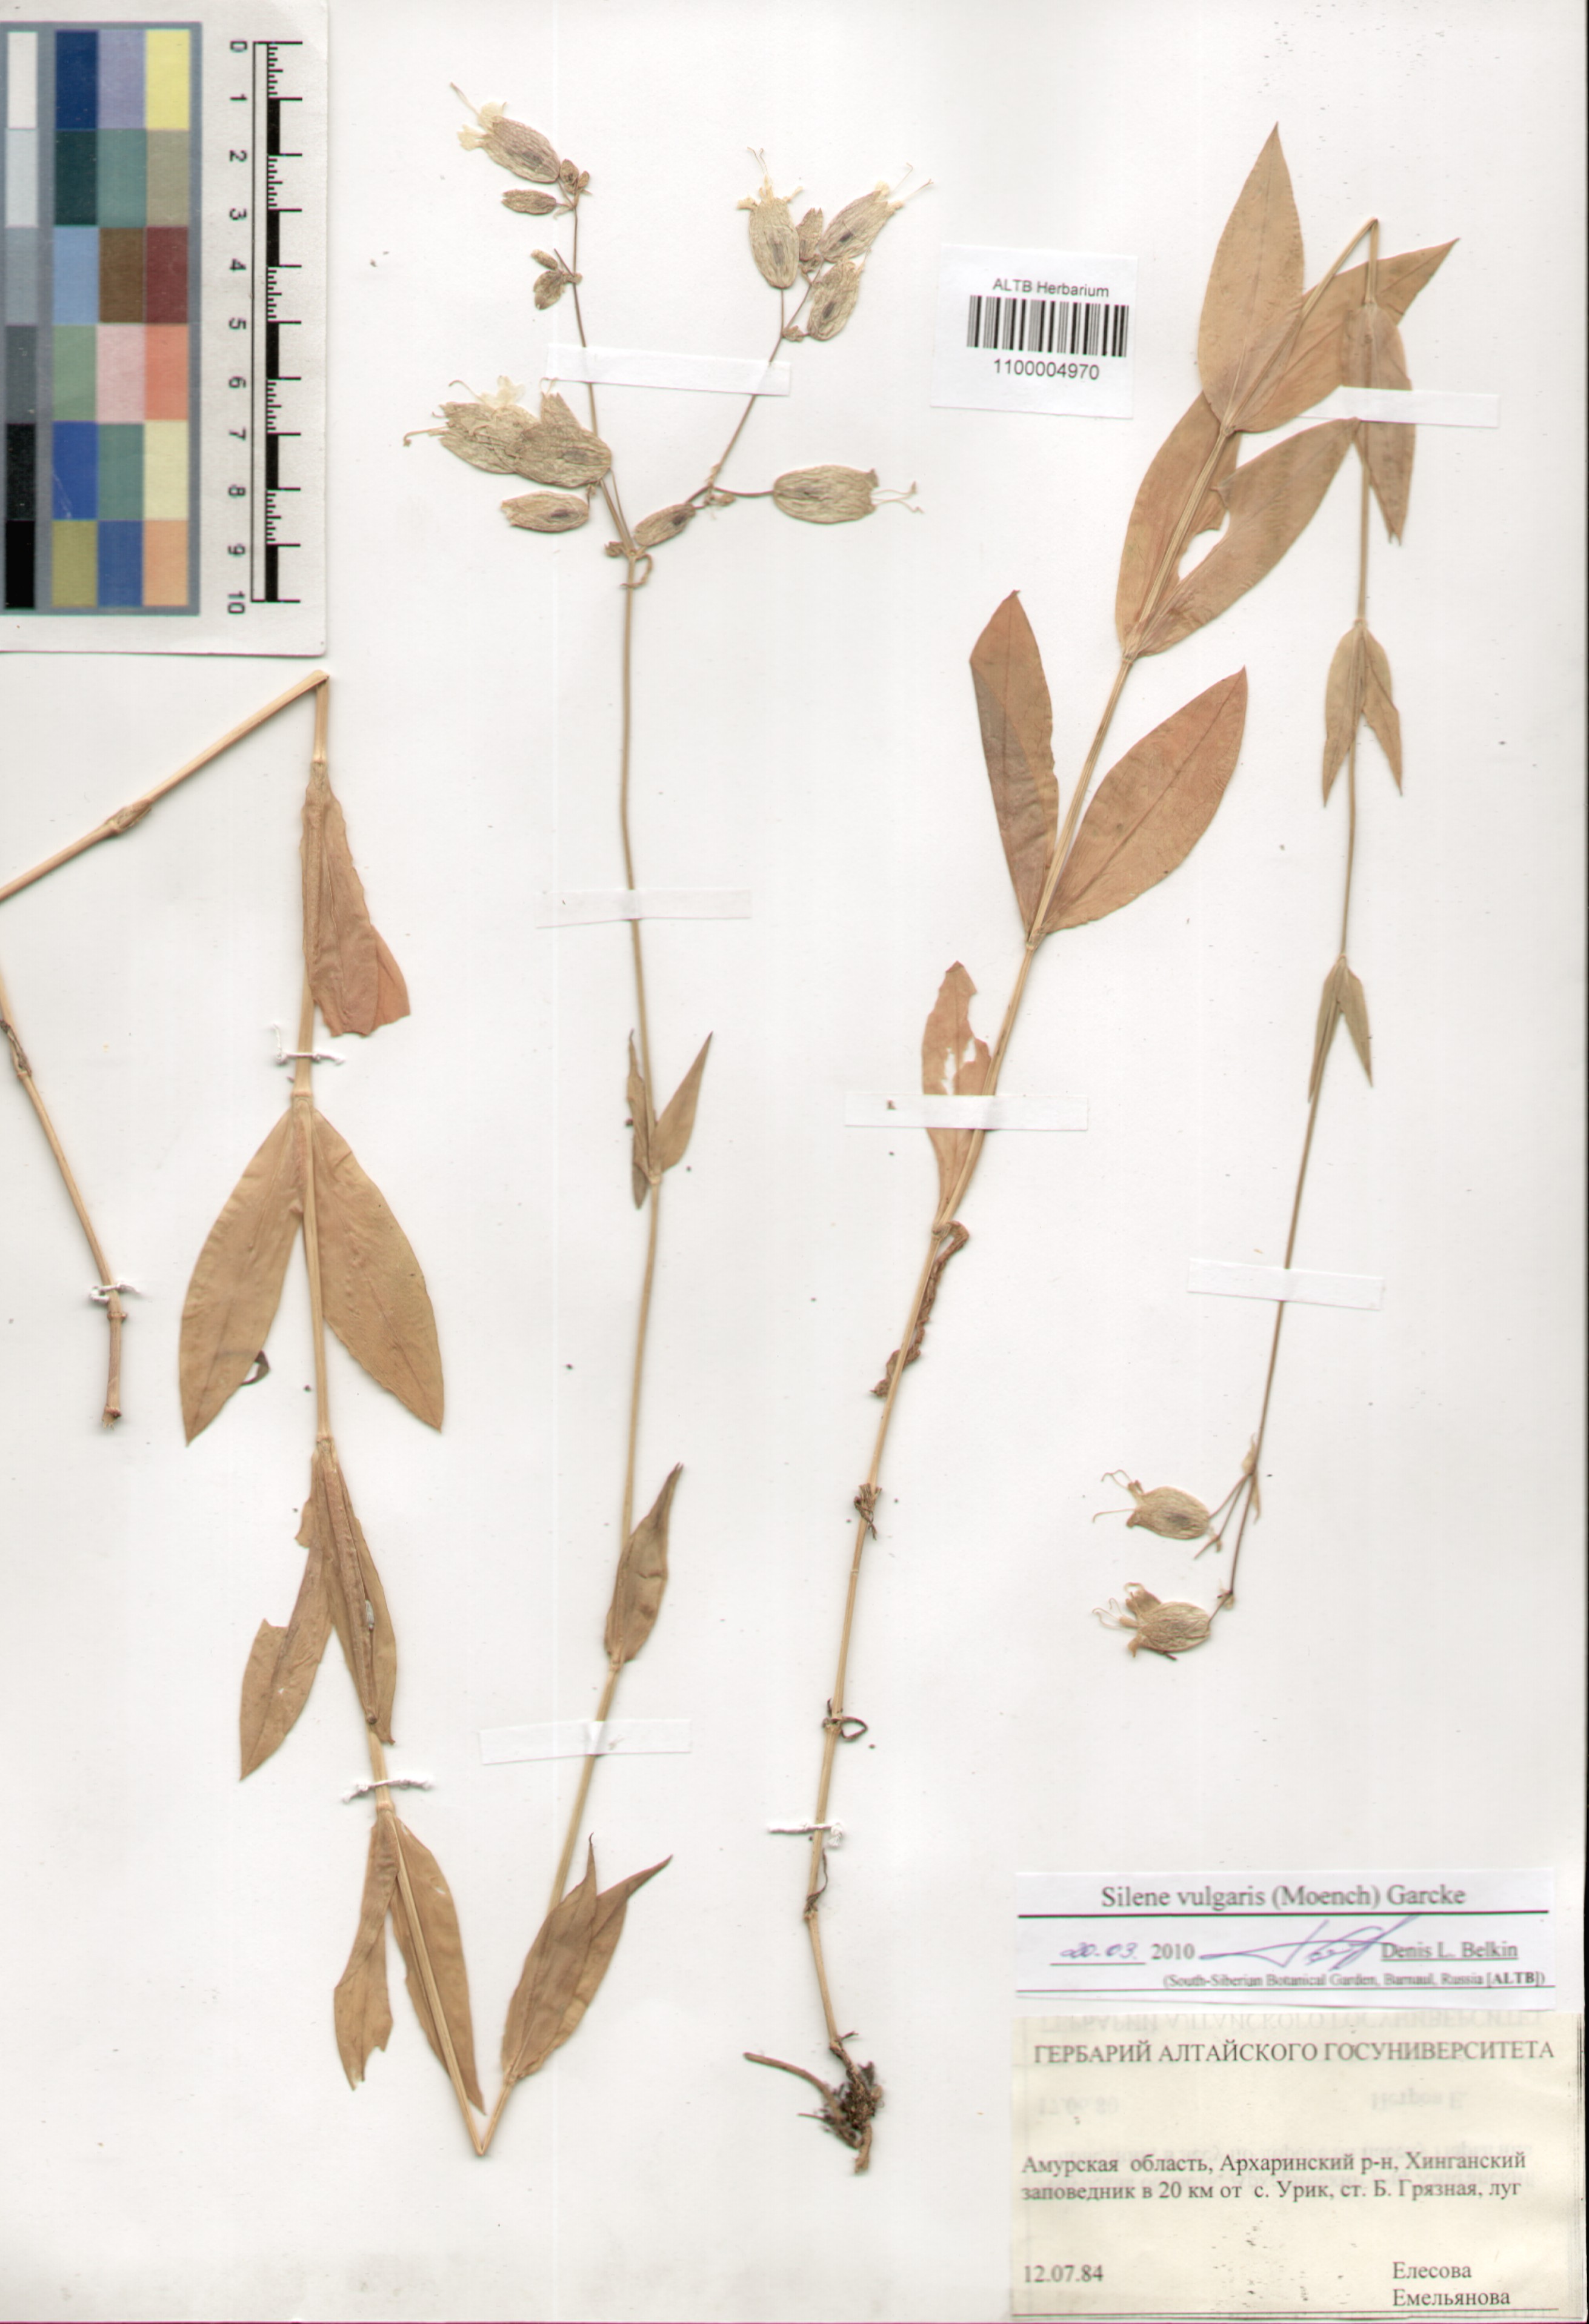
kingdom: Plantae
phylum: Tracheophyta
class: Magnoliopsida
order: Caryophyllales
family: Caryophyllaceae
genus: Silene
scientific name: Silene vulgaris
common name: Bladder campion
